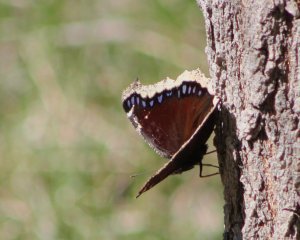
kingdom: Animalia
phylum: Arthropoda
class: Insecta
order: Lepidoptera
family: Nymphalidae
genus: Nymphalis
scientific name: Nymphalis antiopa
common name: Mourning Cloak
